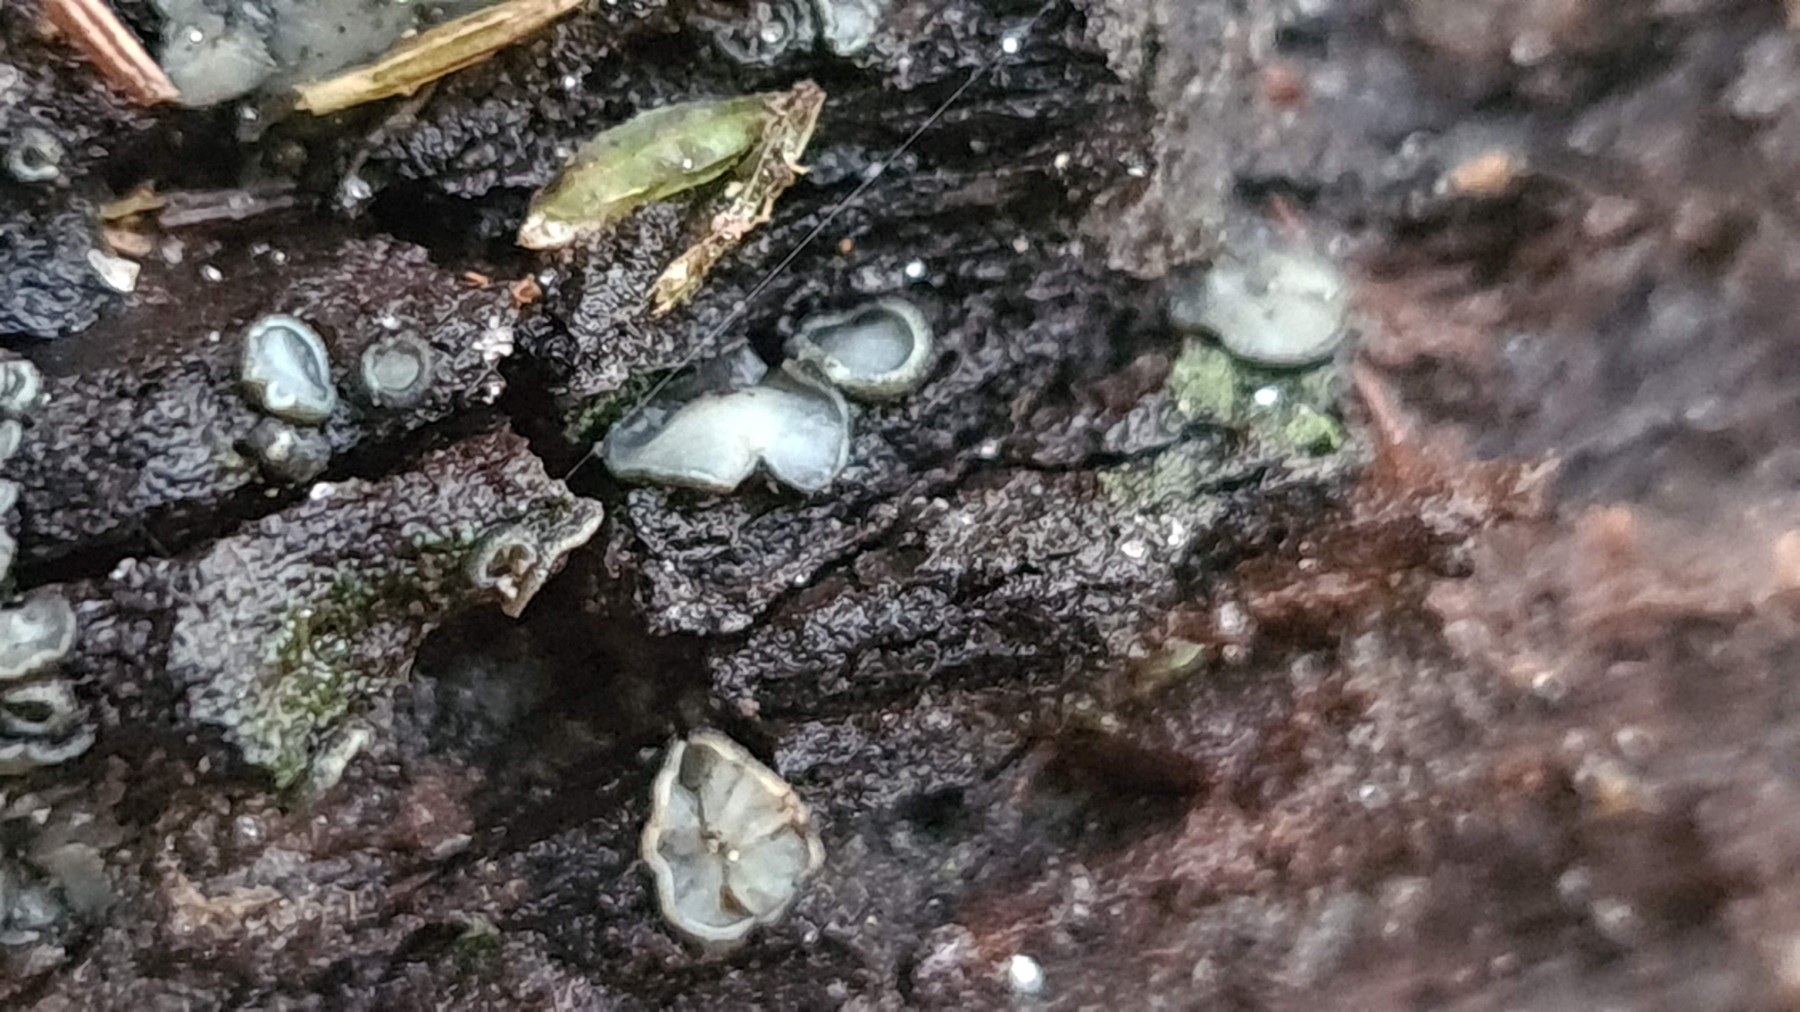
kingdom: Fungi
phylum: Ascomycota
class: Leotiomycetes
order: Helotiales
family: Mollisiaceae
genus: Mollisia
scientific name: Mollisia
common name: gråskive
